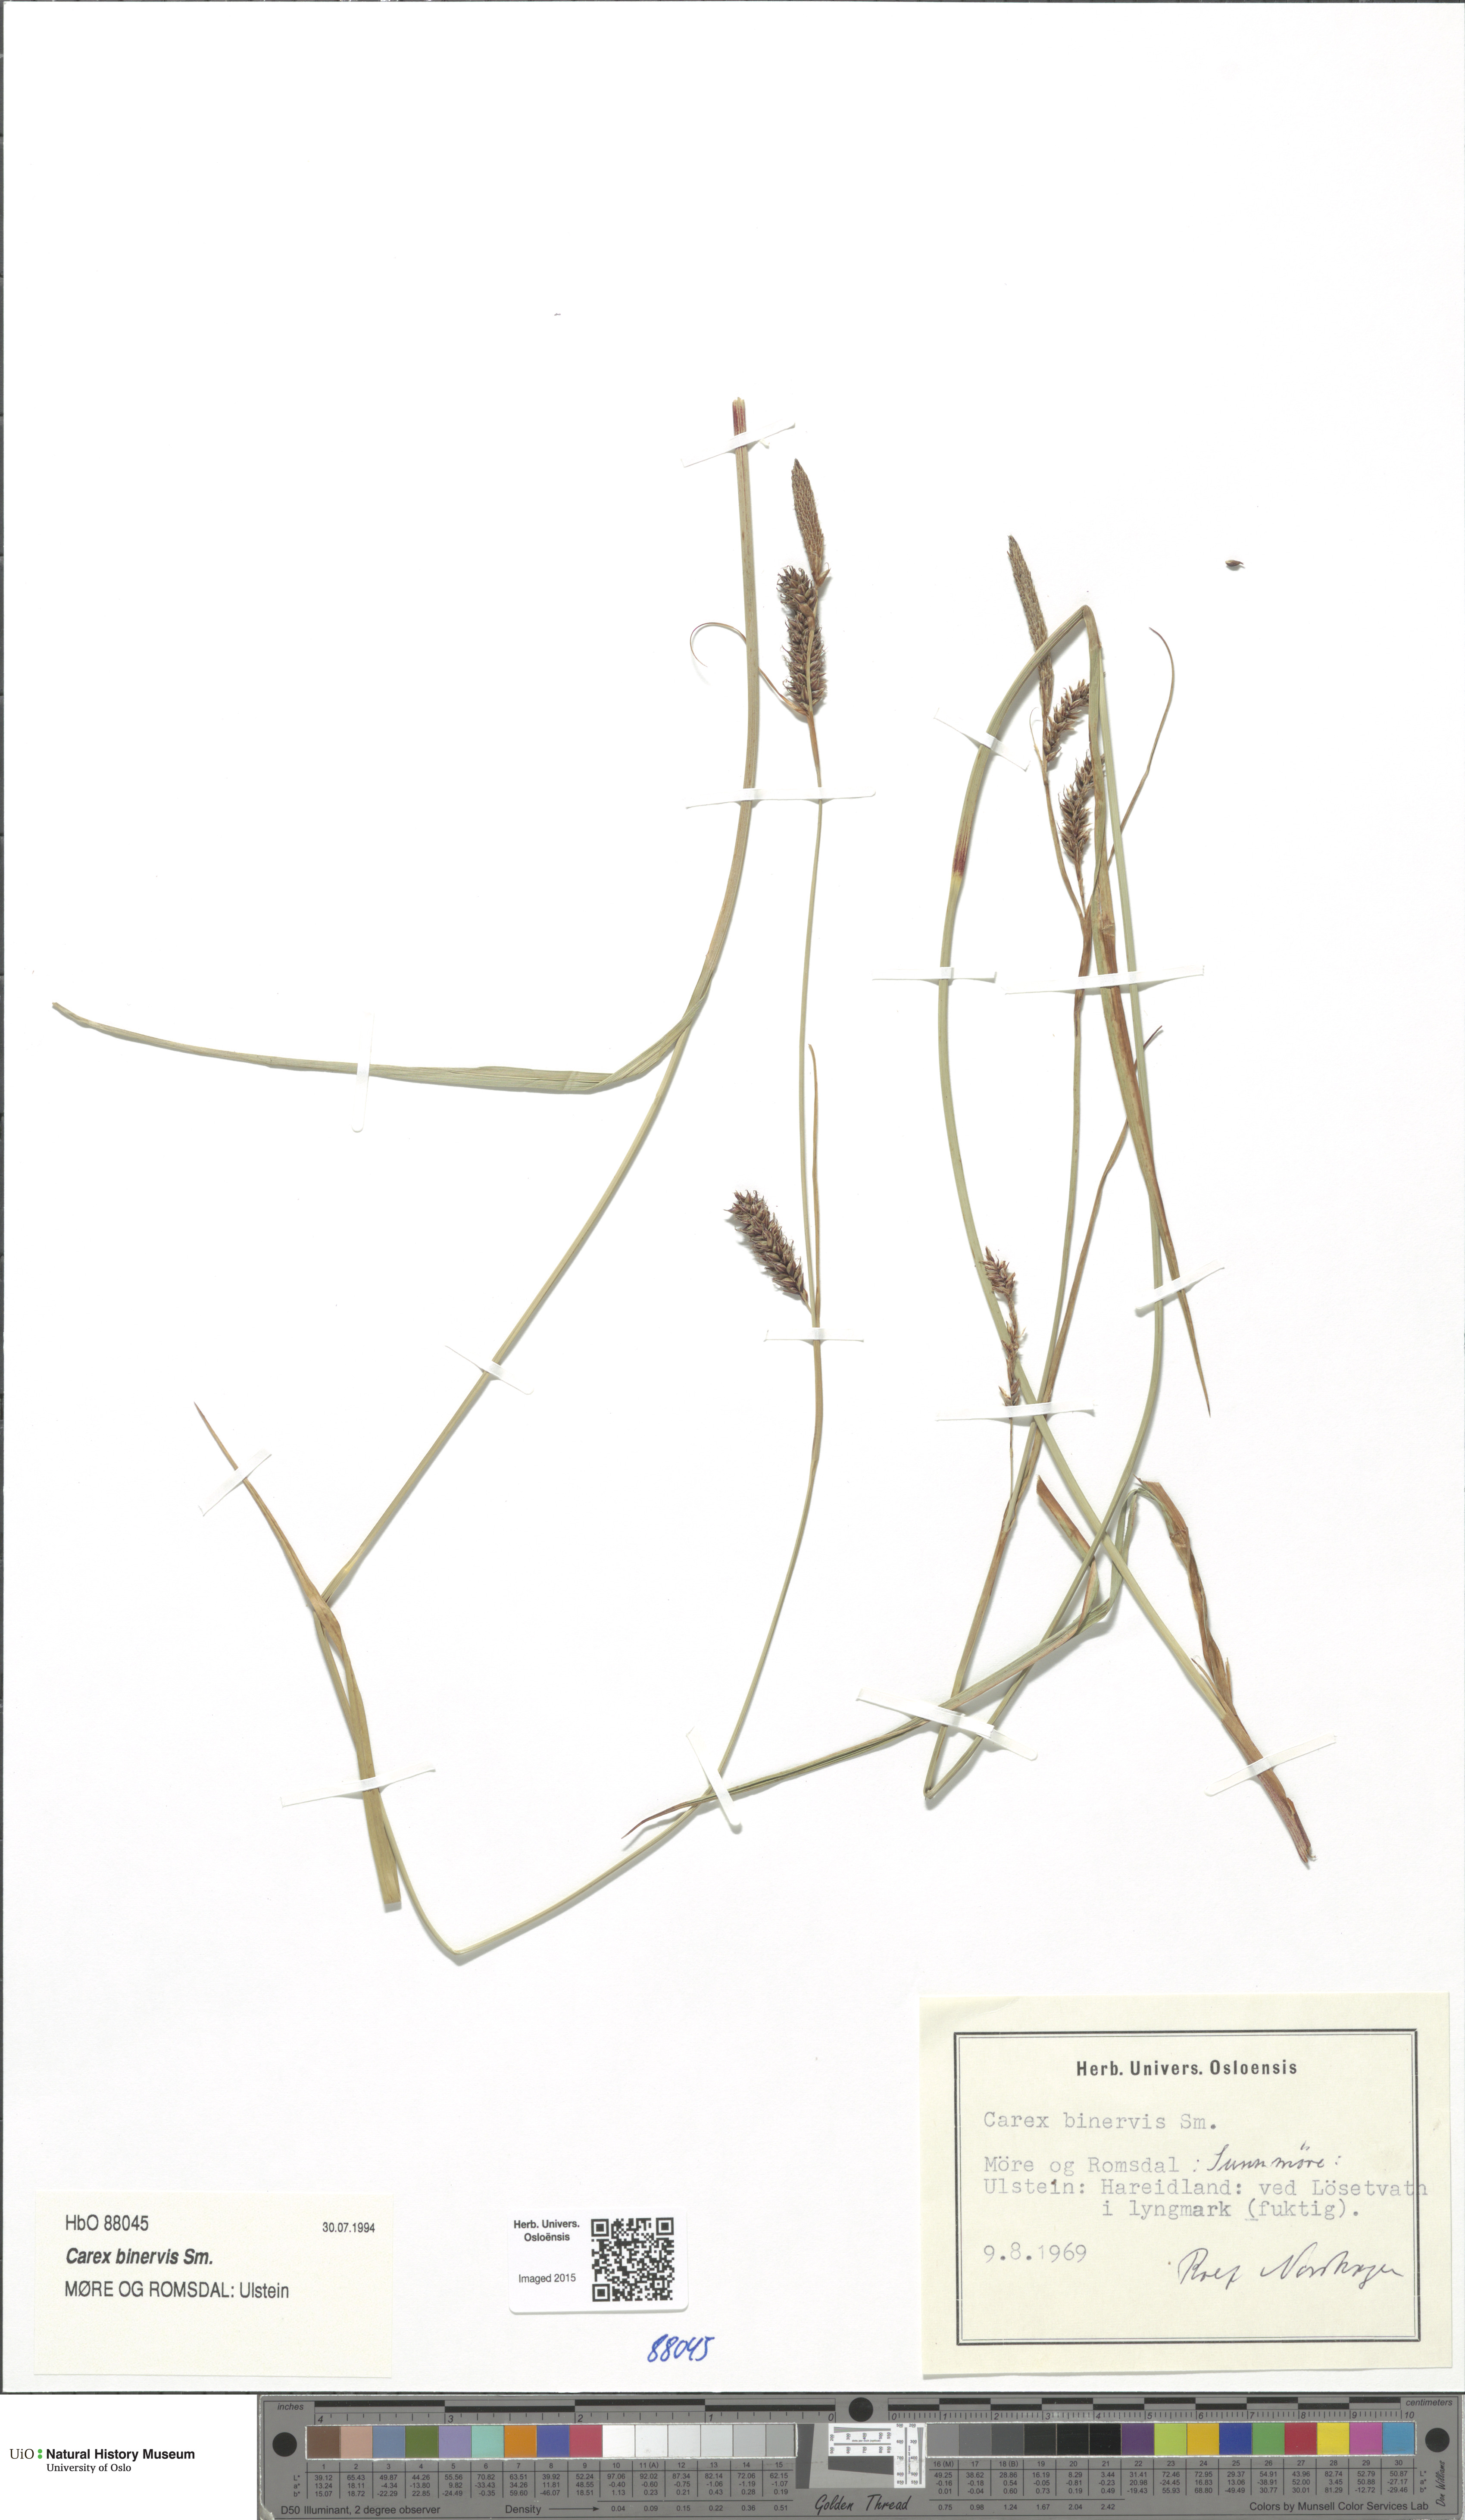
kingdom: Plantae
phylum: Tracheophyta
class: Liliopsida
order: Poales
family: Cyperaceae
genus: Carex
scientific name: Carex binervis
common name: Green-ribbed sedge
